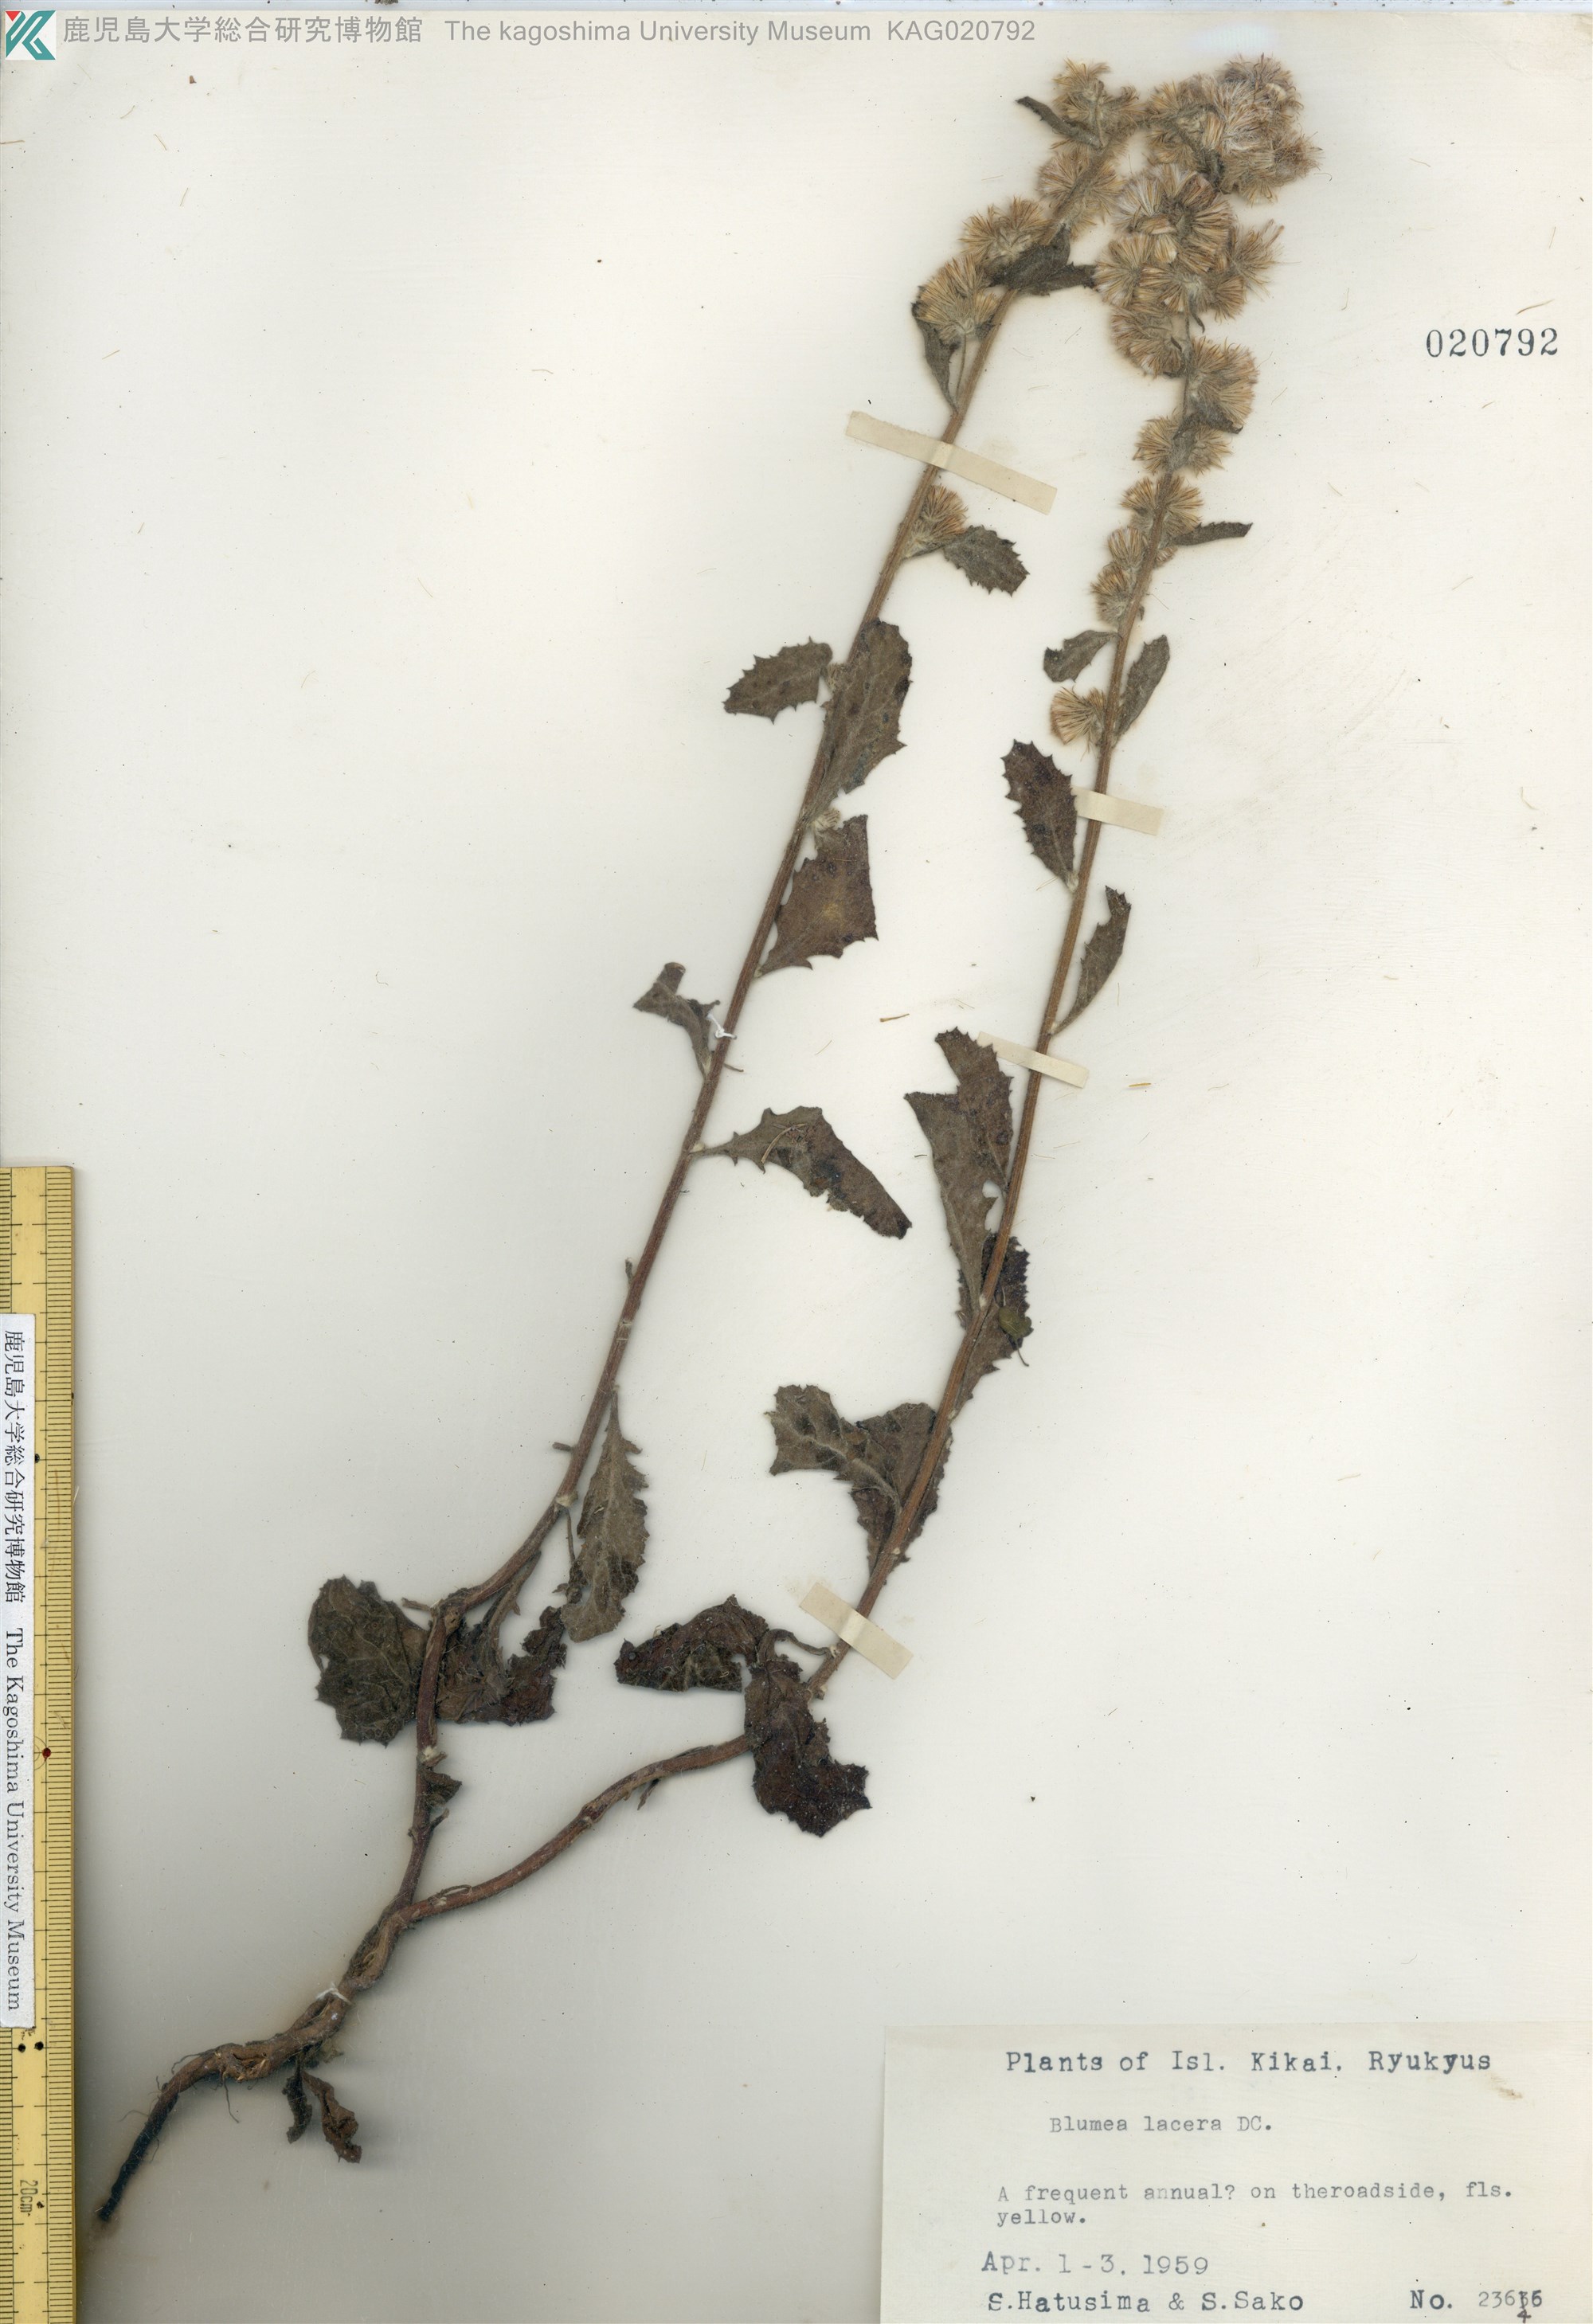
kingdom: Plantae
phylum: Tracheophyta
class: Magnoliopsida
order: Asterales
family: Asteraceae
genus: Blumea
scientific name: Blumea lacera
